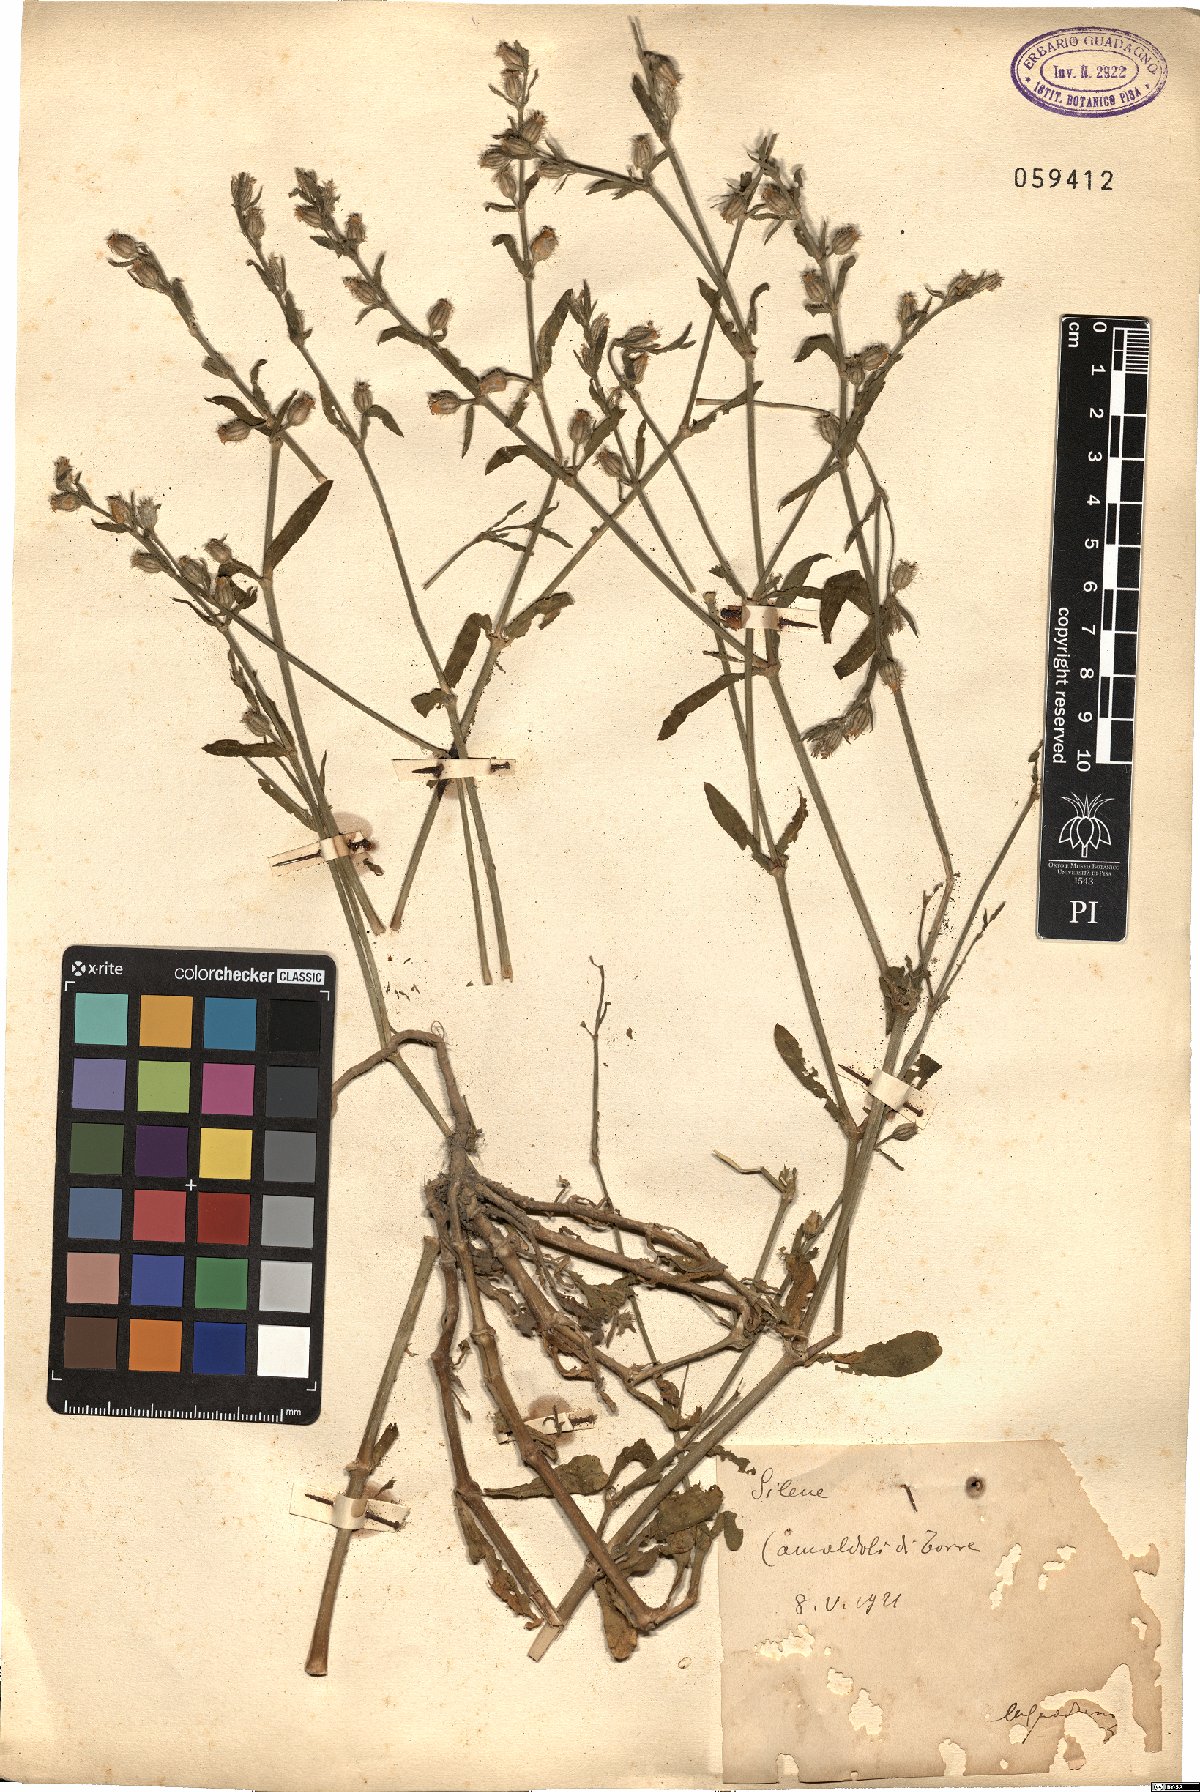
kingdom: Plantae
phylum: Tracheophyta
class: Magnoliopsida
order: Caryophyllales
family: Caryophyllaceae
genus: Silene
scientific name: Silene
